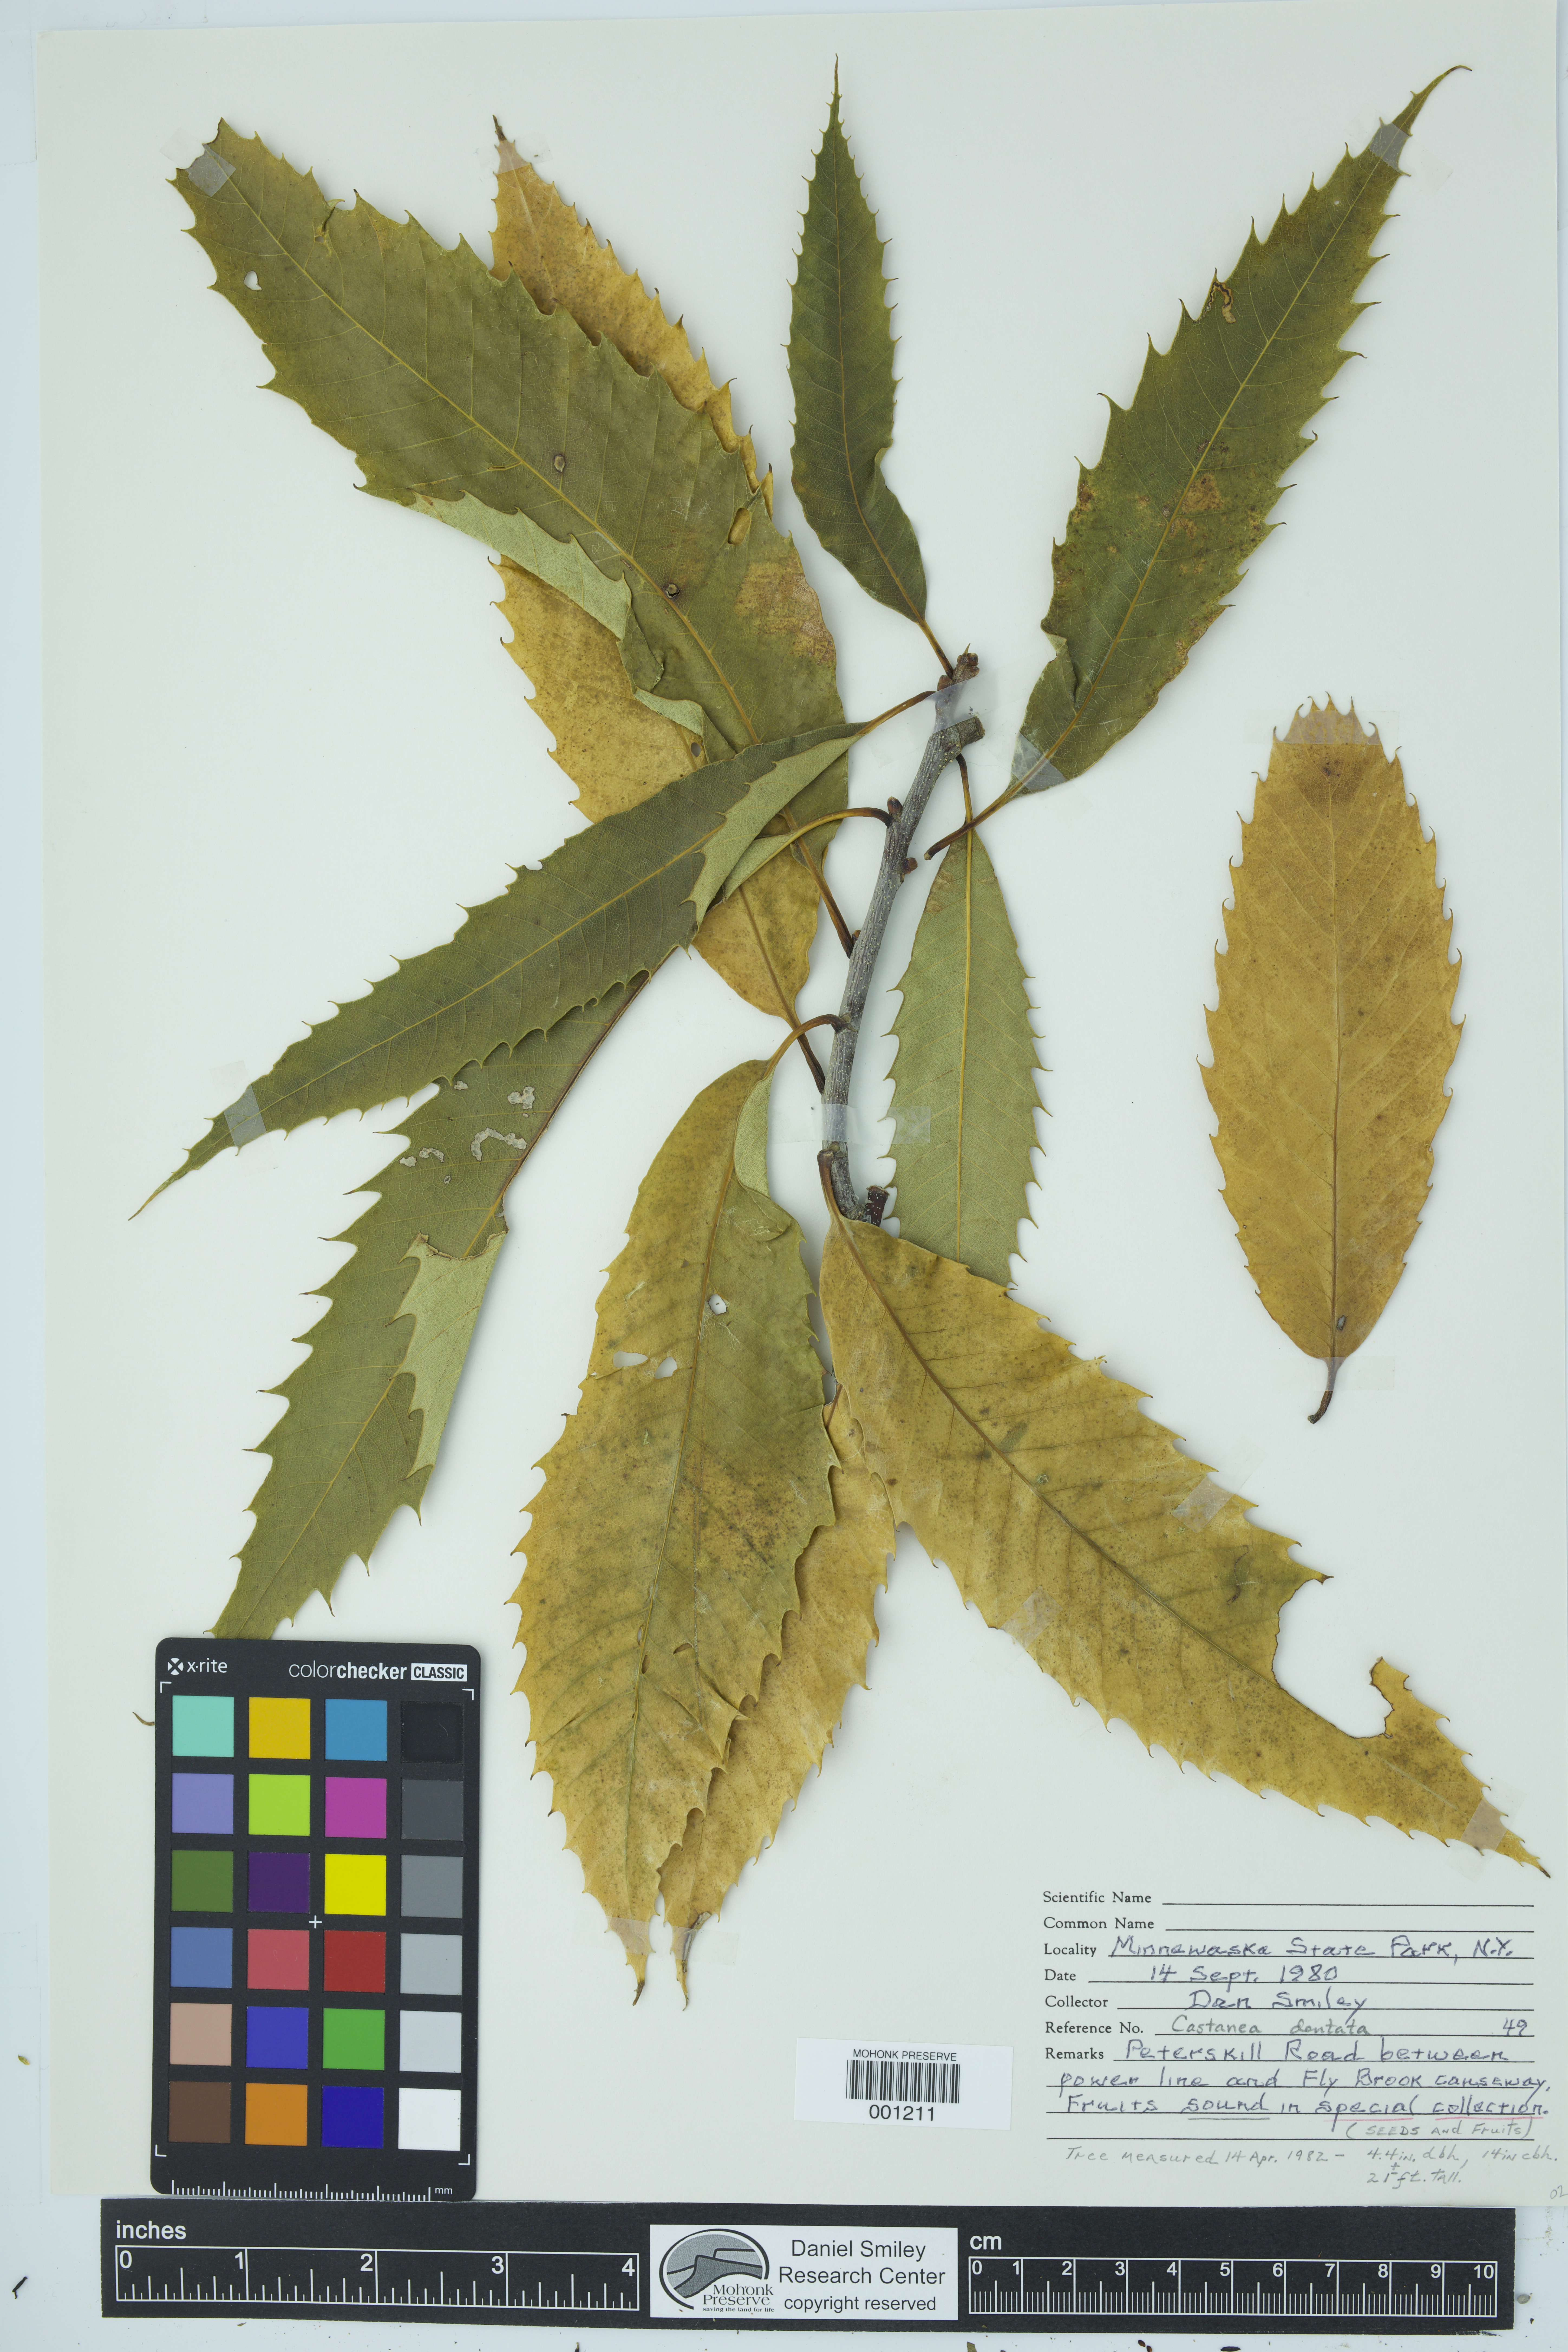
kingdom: Plantae
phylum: Tracheophyta
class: Magnoliopsida
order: Fagales
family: Fagaceae
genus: Castanea
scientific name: Castanea dentata
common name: American chestnut
